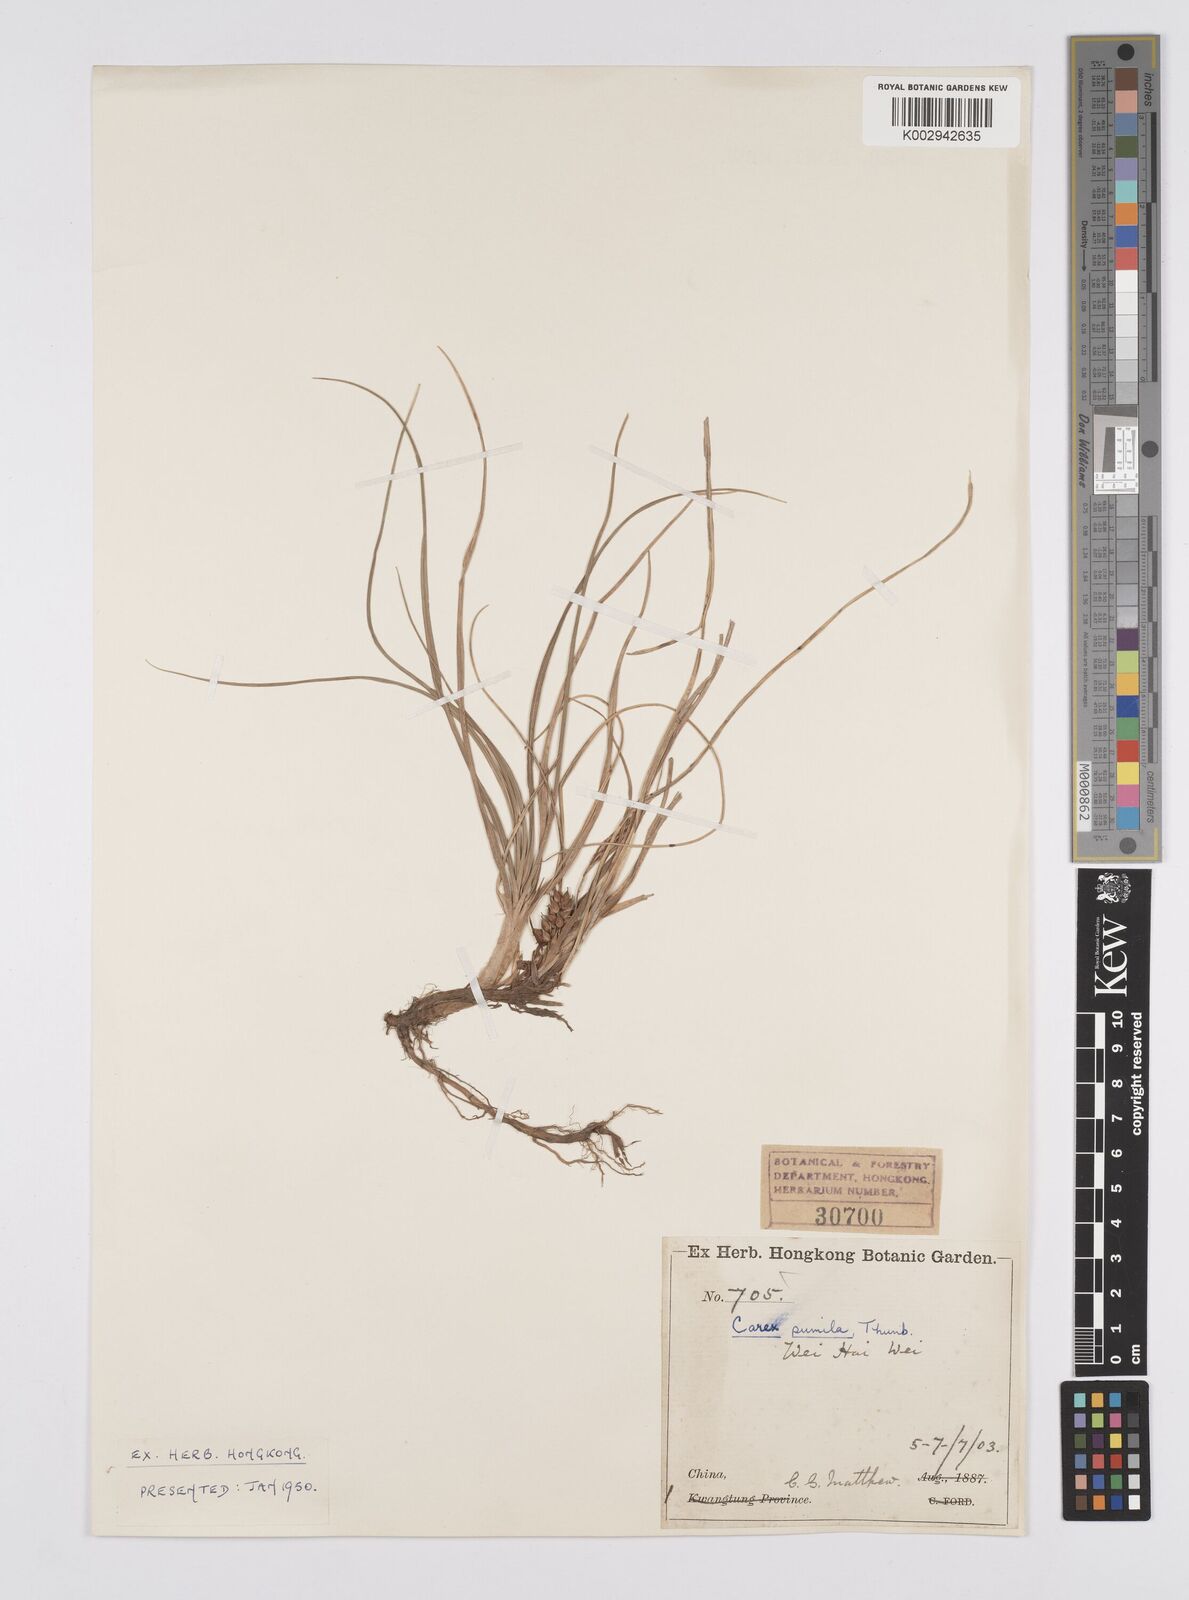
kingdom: Plantae
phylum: Tracheophyta
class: Liliopsida
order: Poales
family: Cyperaceae
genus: Carex
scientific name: Carex pumila
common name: Dwarf sedge
